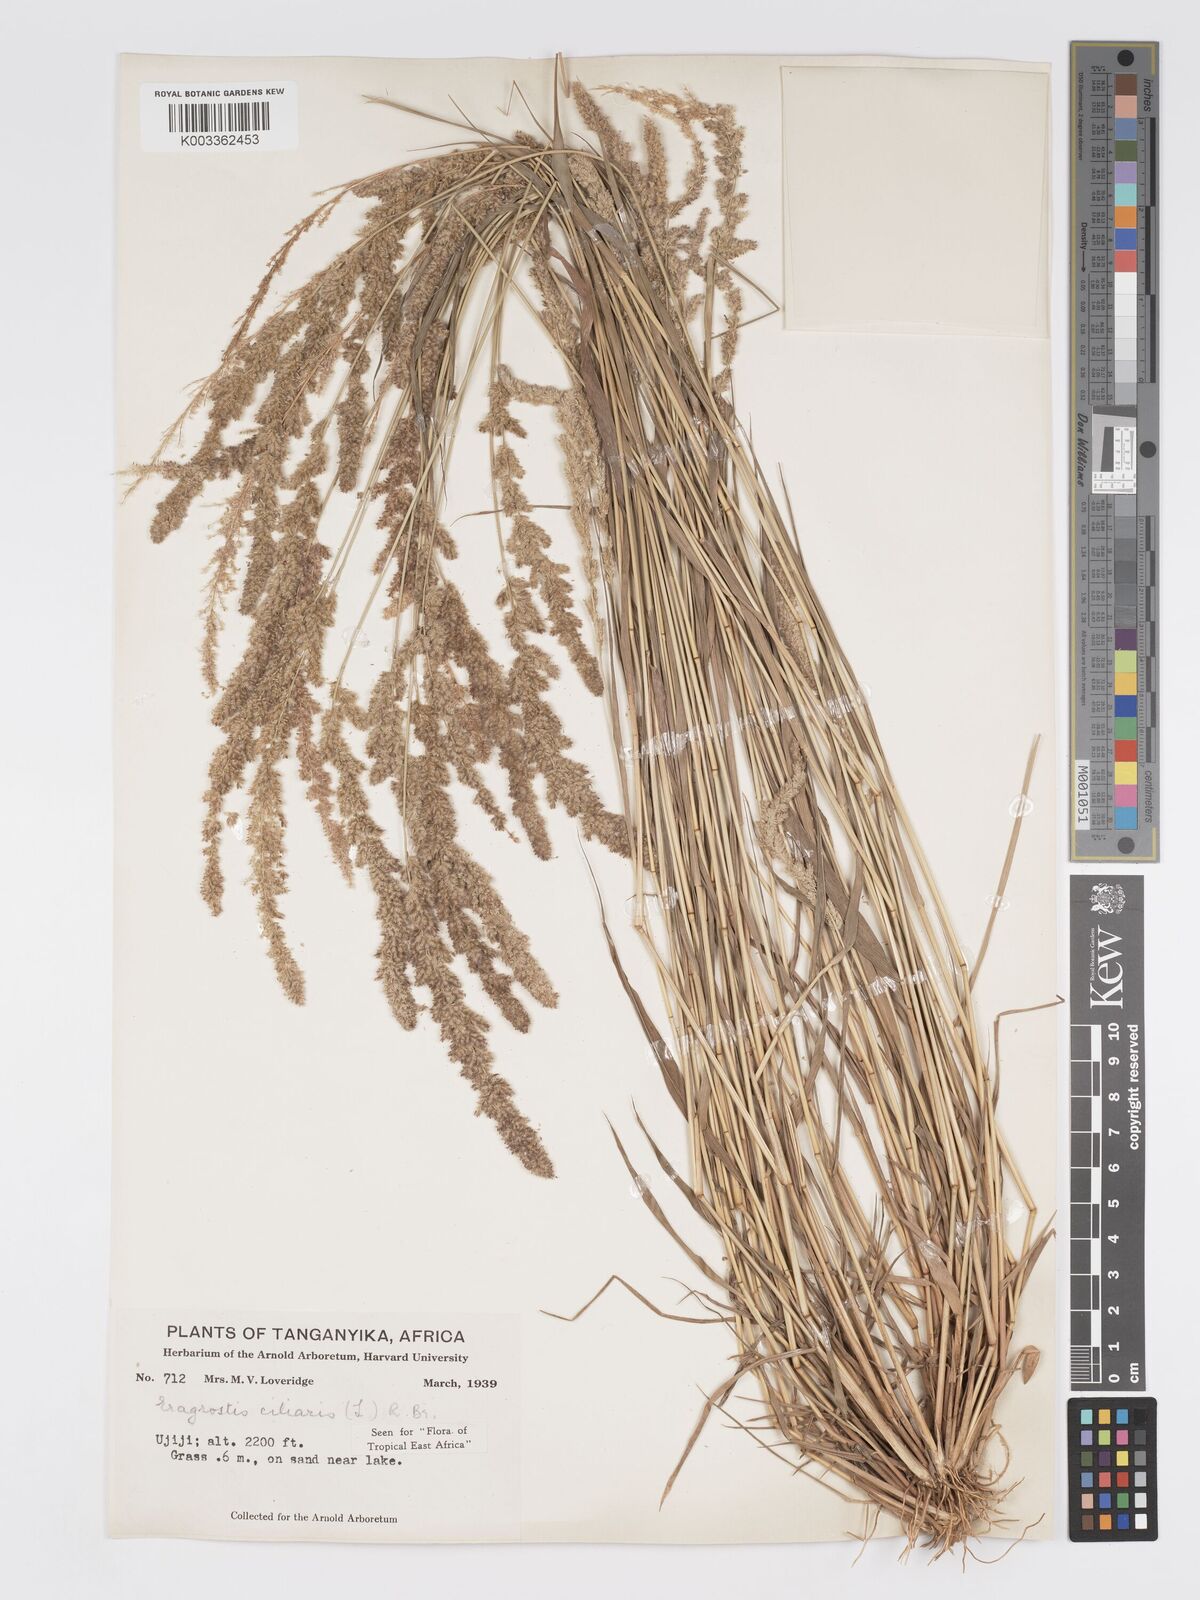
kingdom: Plantae
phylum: Tracheophyta
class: Liliopsida
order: Poales
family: Poaceae
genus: Eragrostis
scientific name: Eragrostis ciliaris
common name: Gophertail lovegrass
